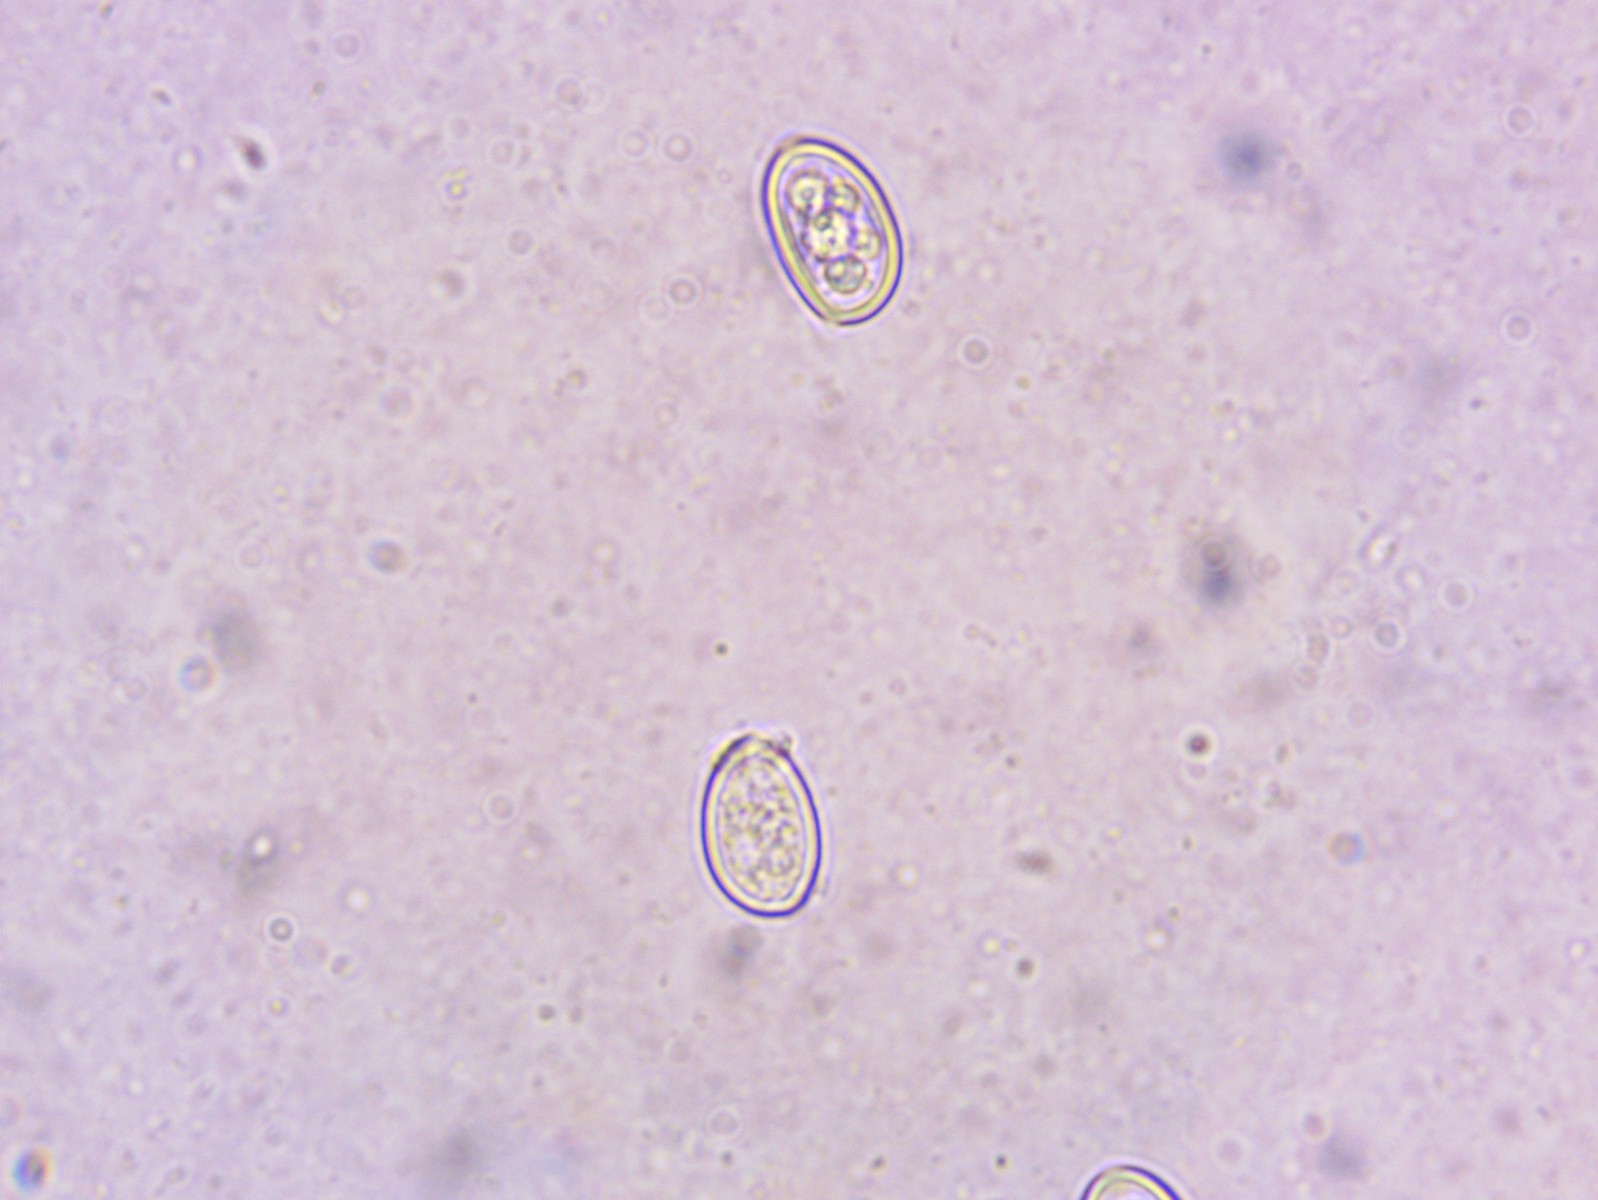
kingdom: Fungi
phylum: Basidiomycota
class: Agaricomycetes
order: Agaricales
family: Agaricaceae
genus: Macrolepiota
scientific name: Macrolepiota excoriata
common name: mark-kæmpeparasolhat
